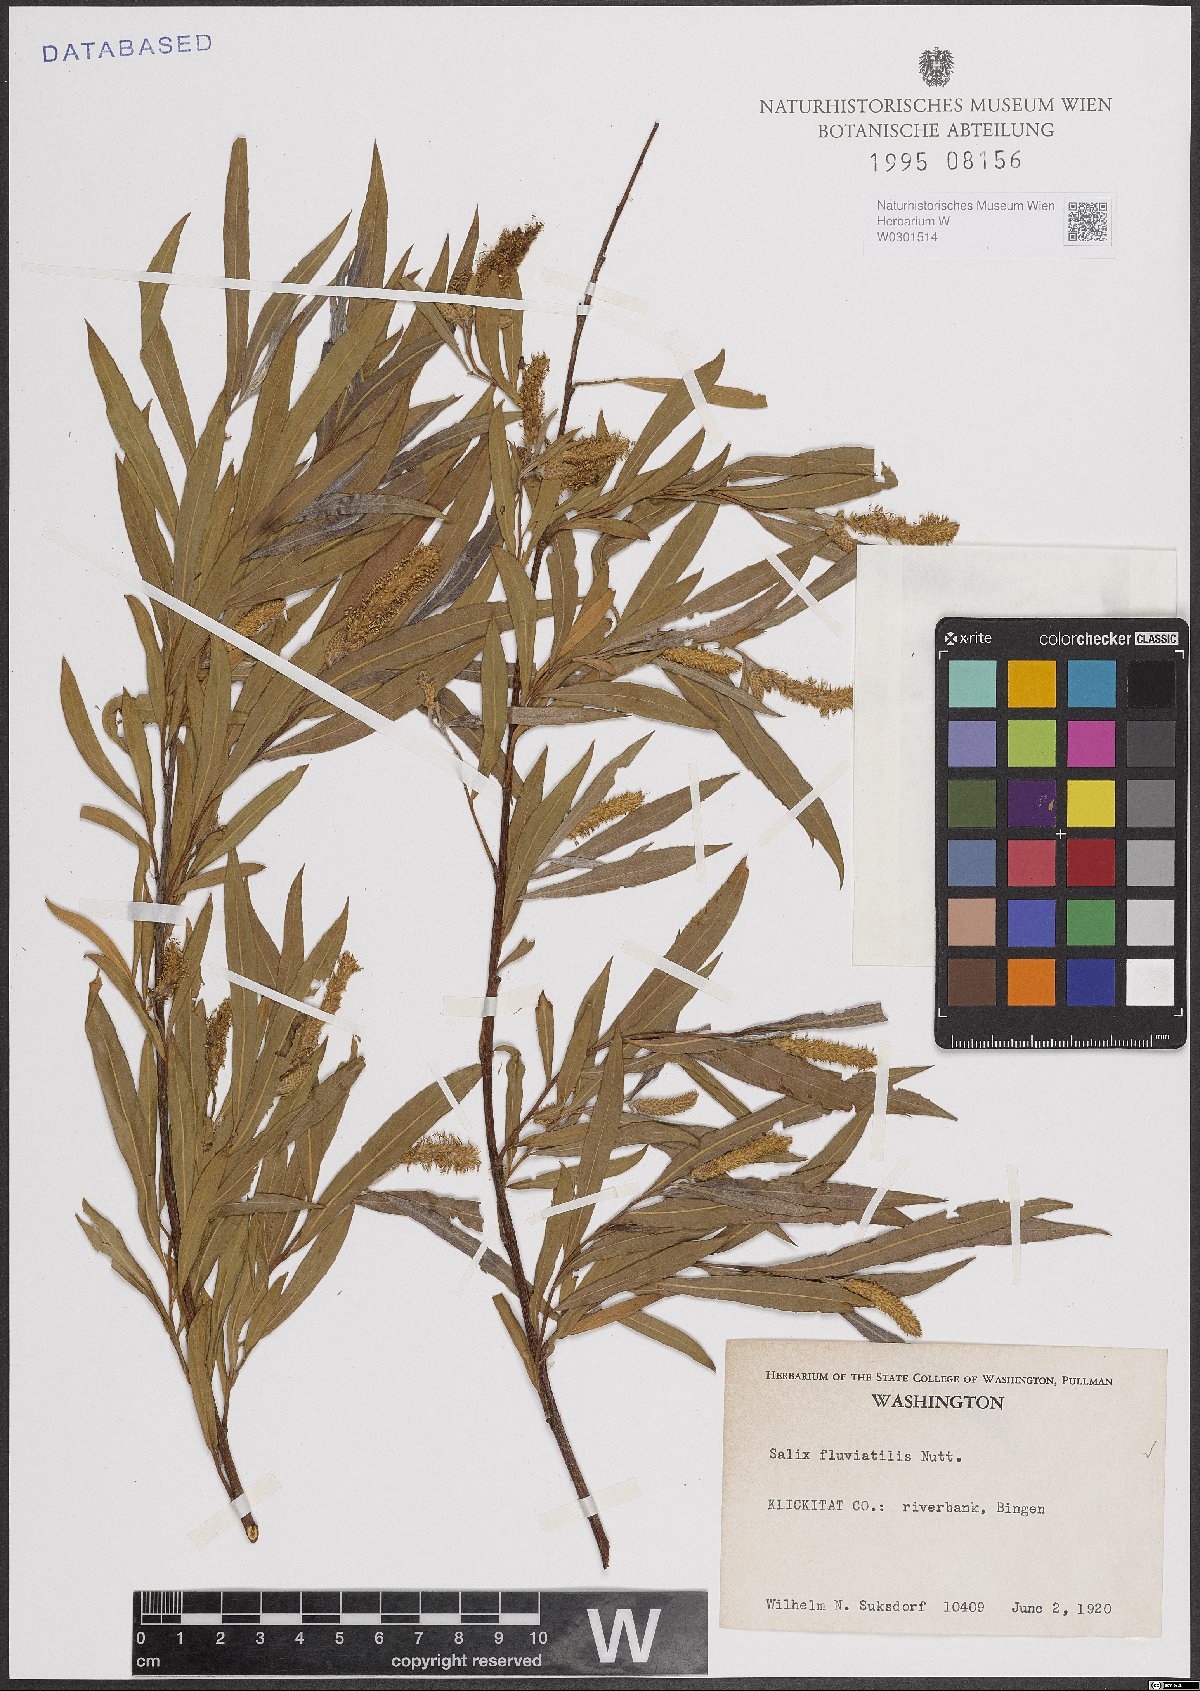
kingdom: Plantae
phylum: Tracheophyta
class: Magnoliopsida
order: Malpighiales
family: Salicaceae
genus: Salix
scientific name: Salix melanopsis
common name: Dusky willow
